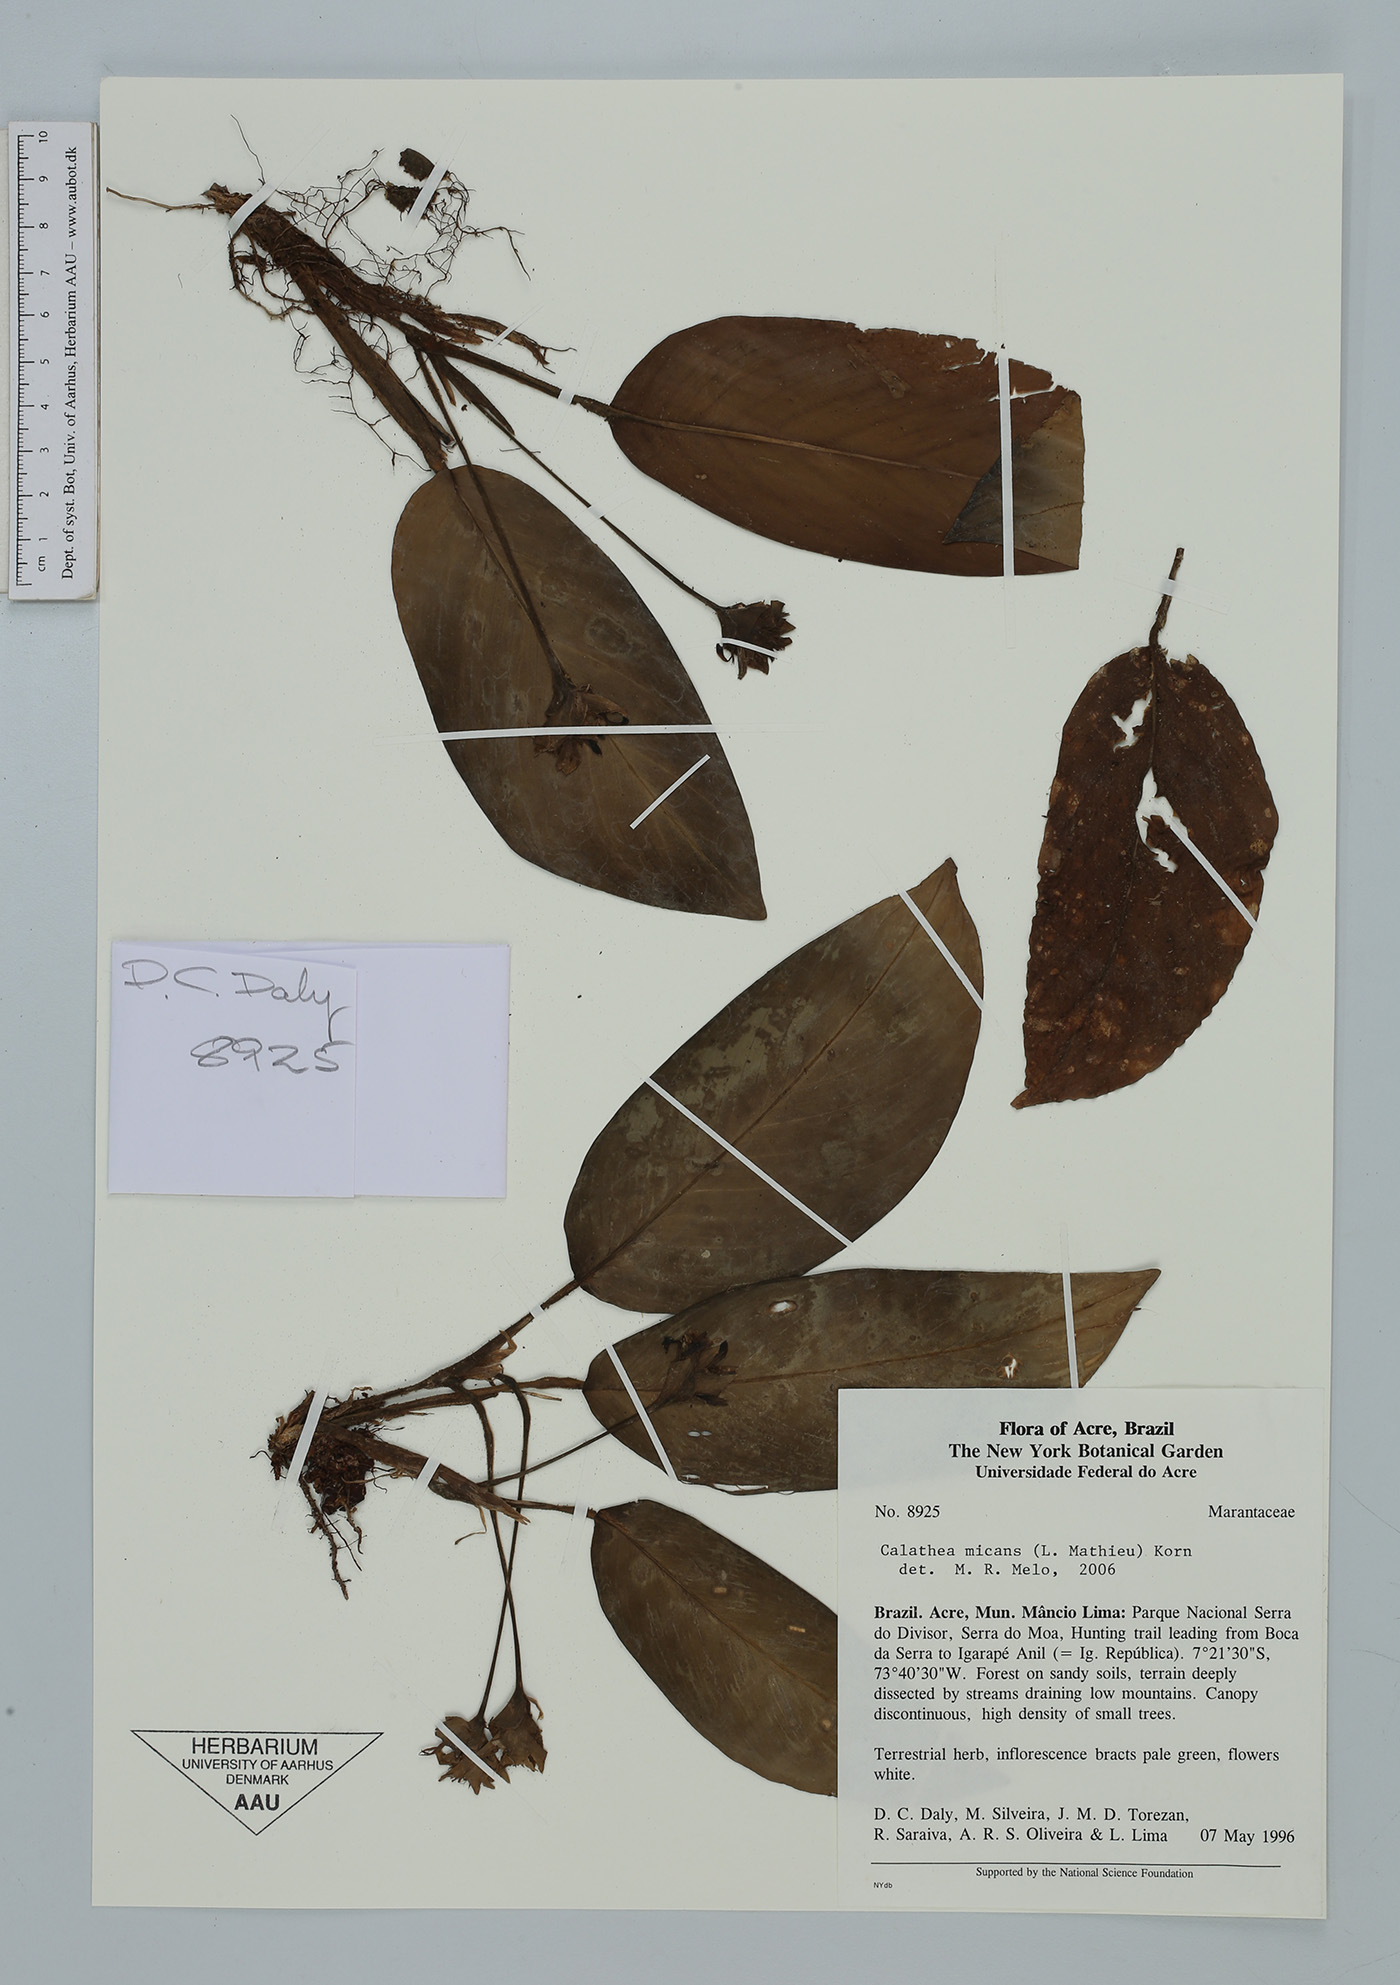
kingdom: Plantae
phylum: Tracheophyta
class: Liliopsida
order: Zingiberales
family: Marantaceae
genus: Goeppertia
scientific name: Goeppertia micans
